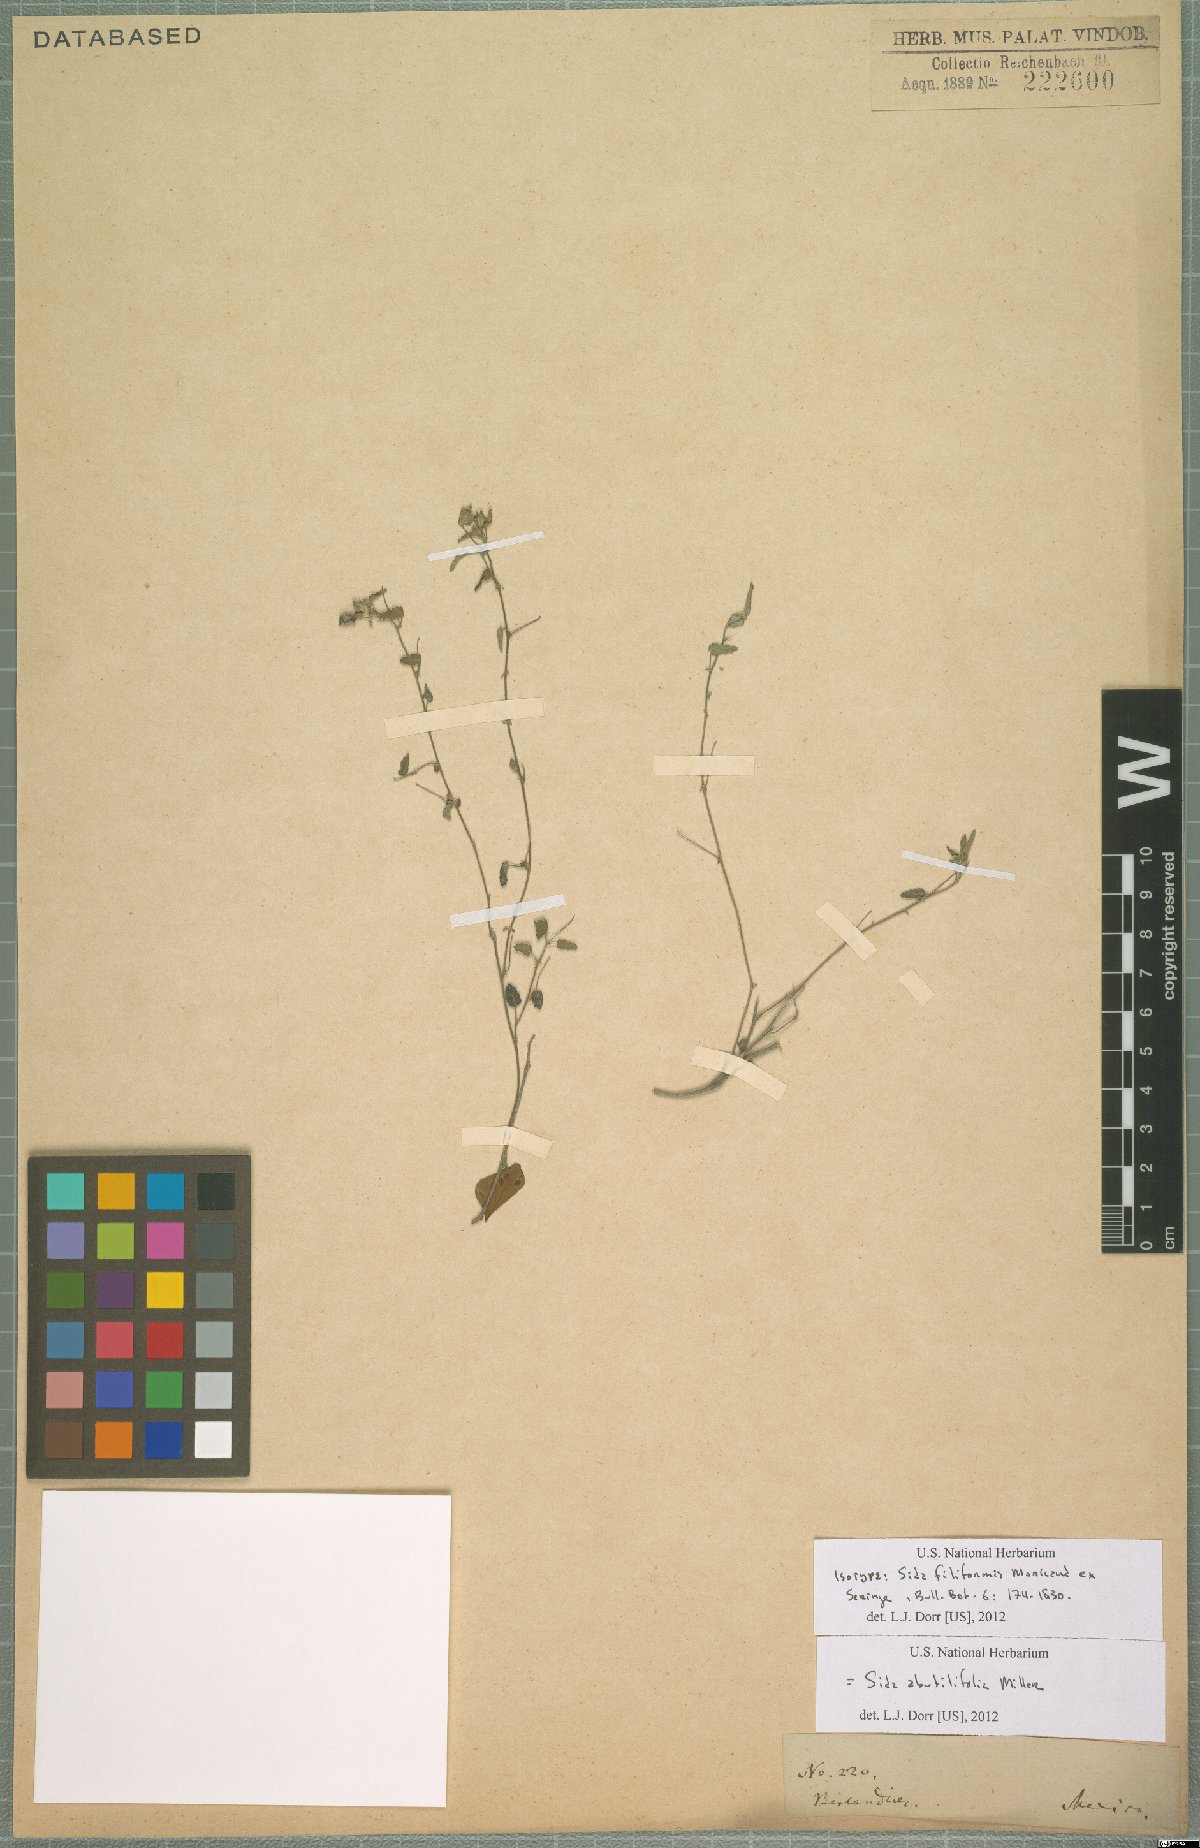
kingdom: Plantae
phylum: Tracheophyta
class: Magnoliopsida
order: Malvales
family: Malvaceae
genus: Sida
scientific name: Sida abutifolia
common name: Spreading fantails
